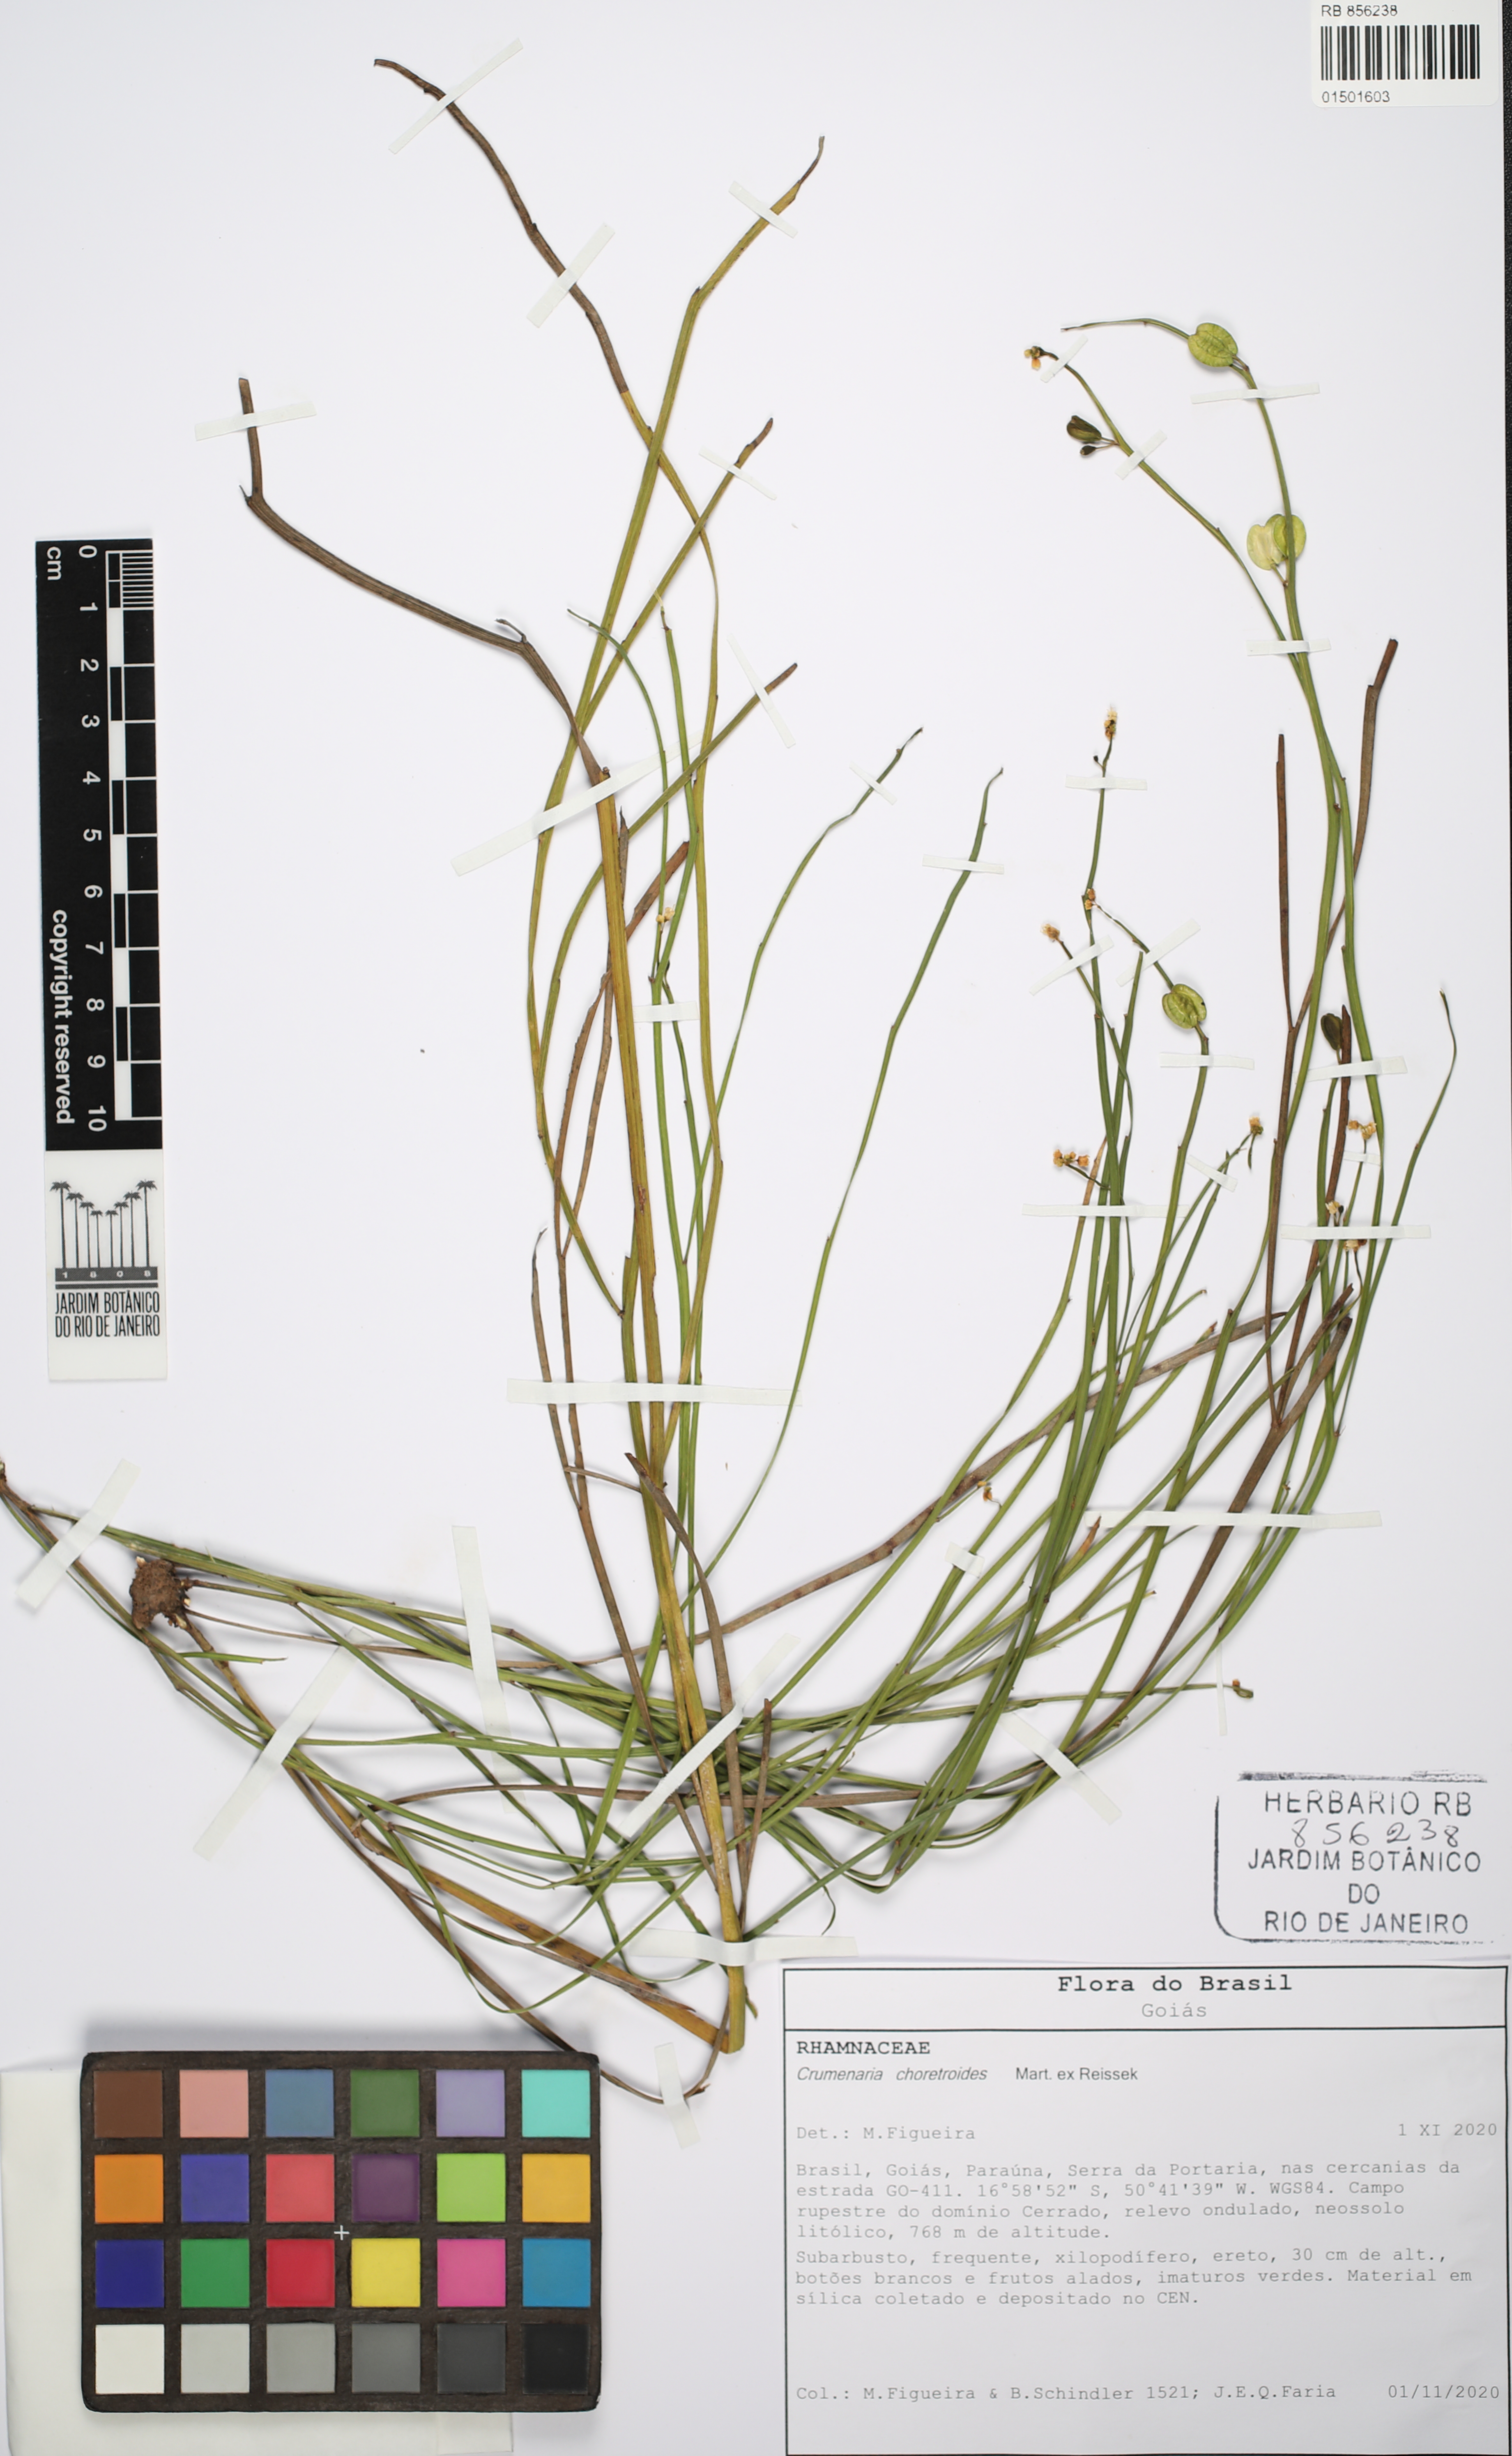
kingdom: Plantae
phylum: Tracheophyta
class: Magnoliopsida
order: Rosales
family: Rhamnaceae
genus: Crumenaria
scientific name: Crumenaria choretroides
